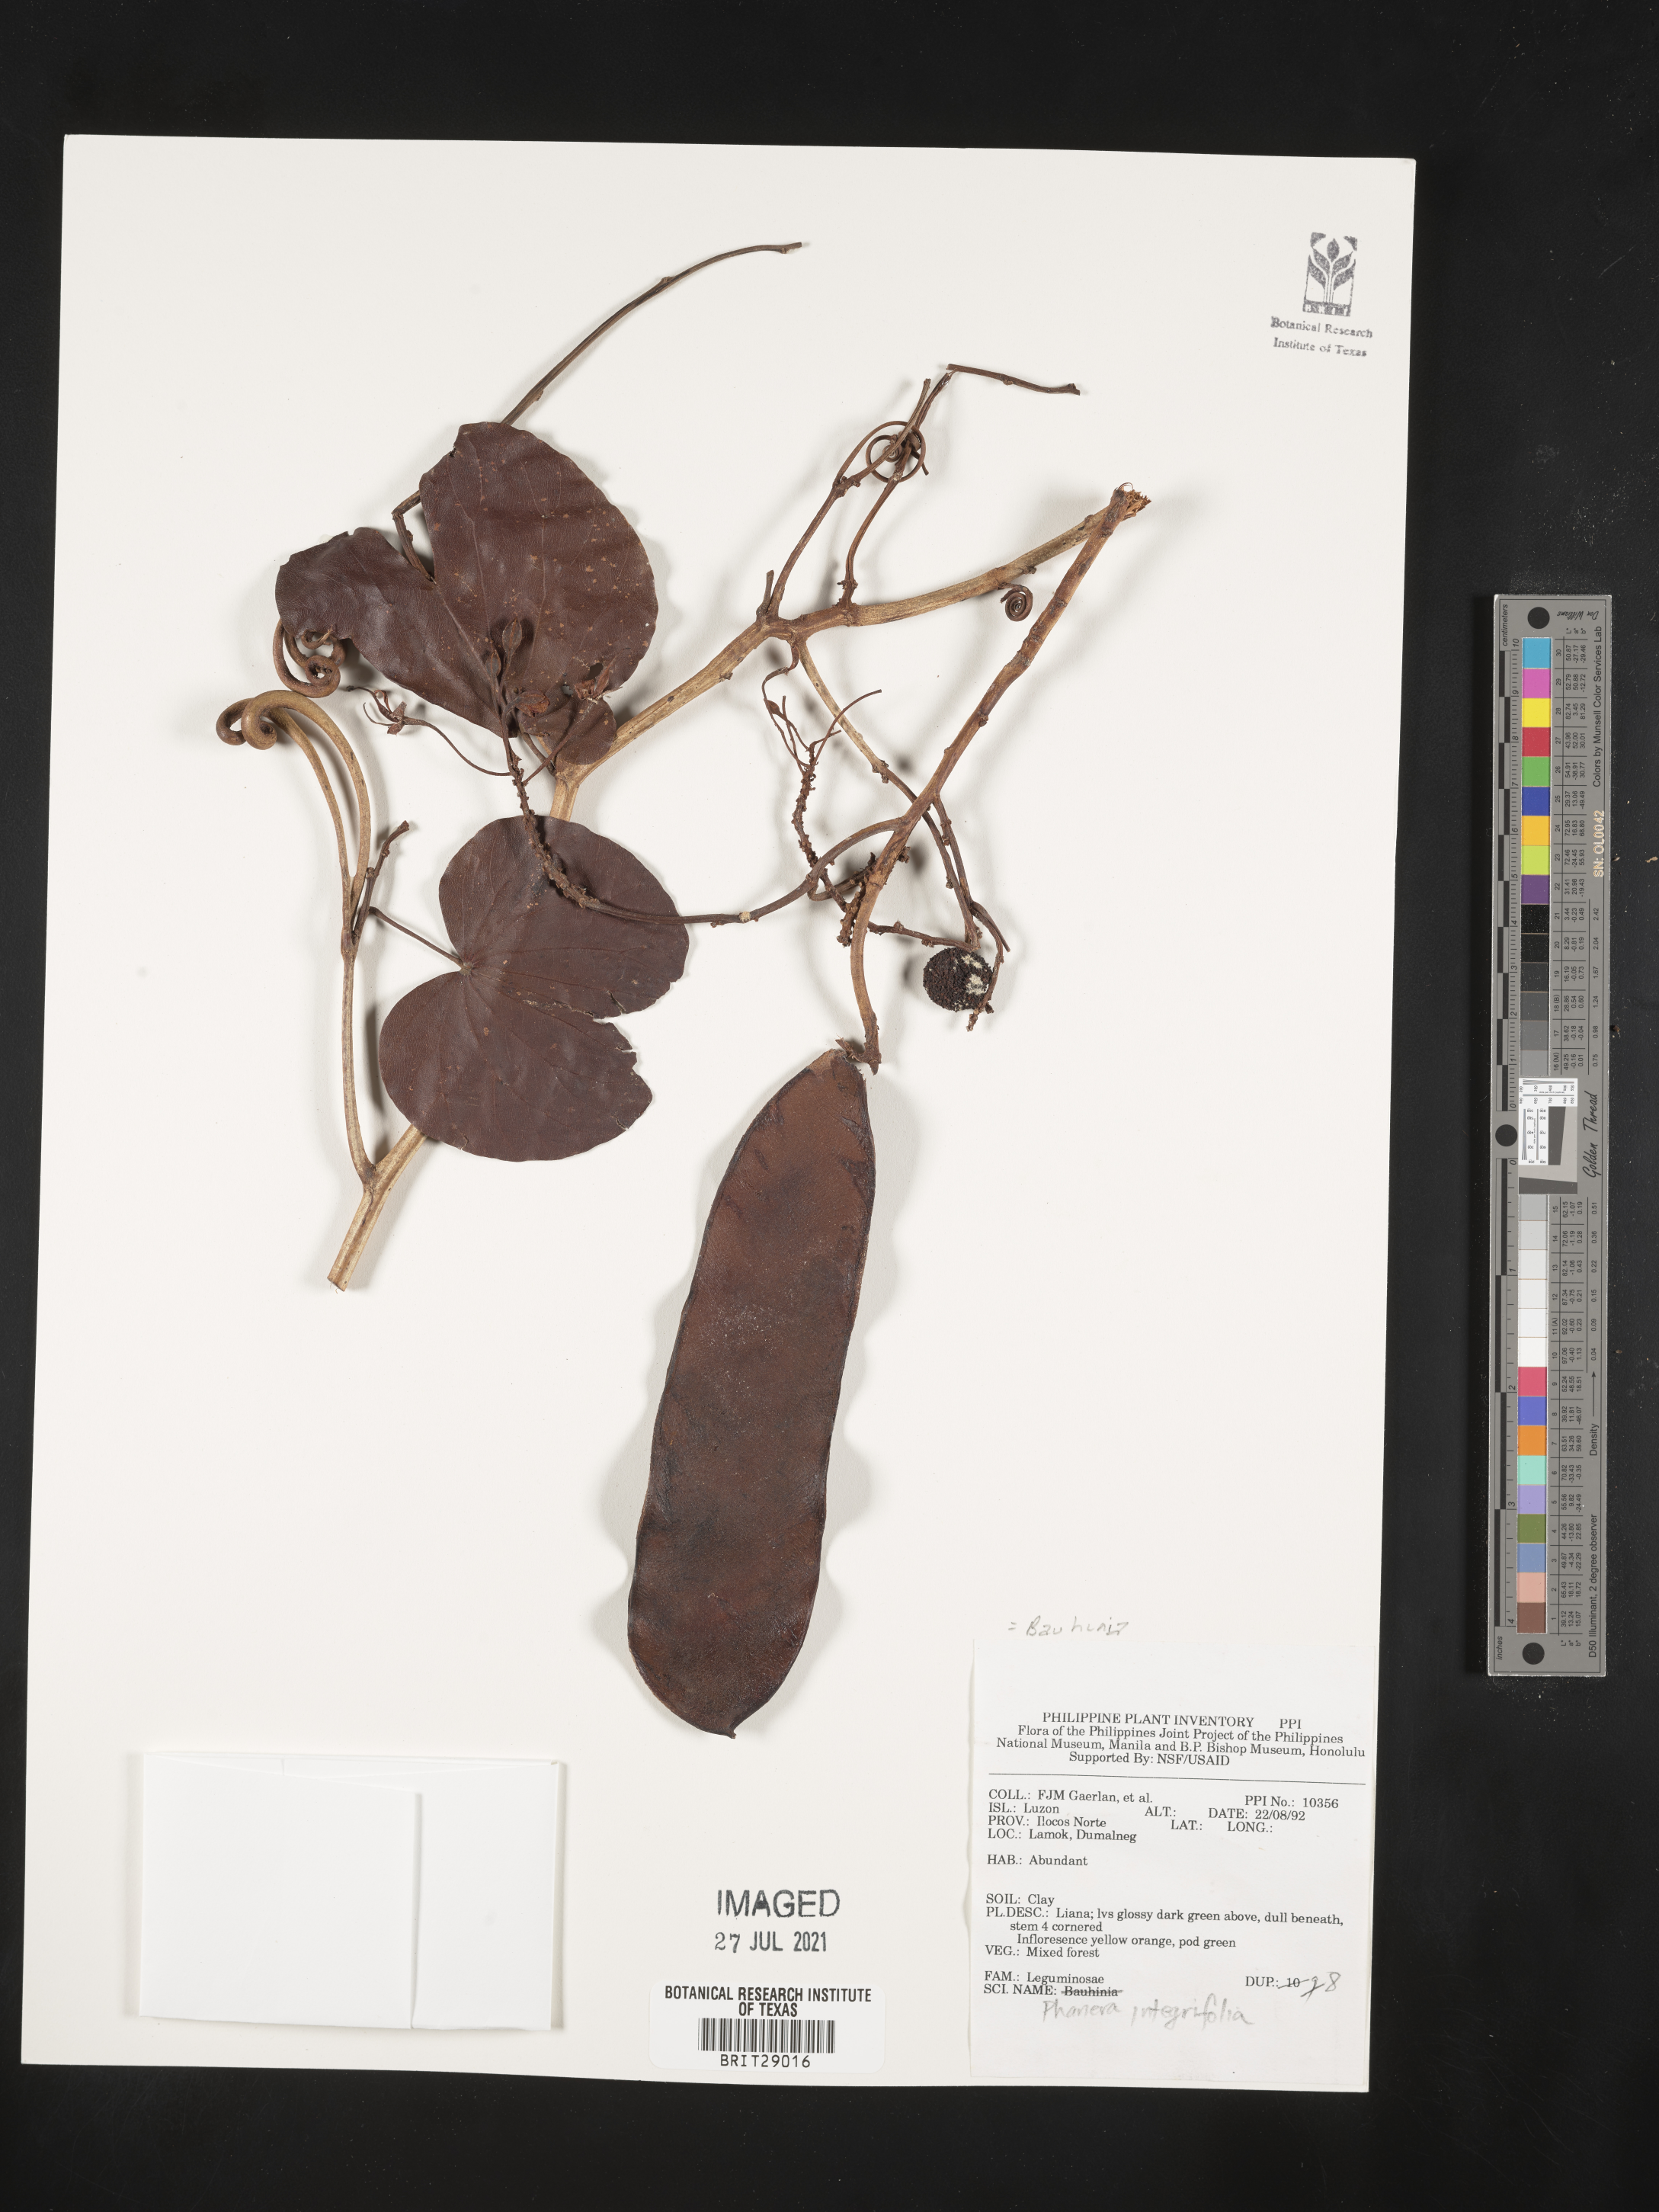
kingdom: Plantae
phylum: Tracheophyta
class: Magnoliopsida
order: Fabales
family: Fabaceae
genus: Phanera
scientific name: Phanera integrifolia
